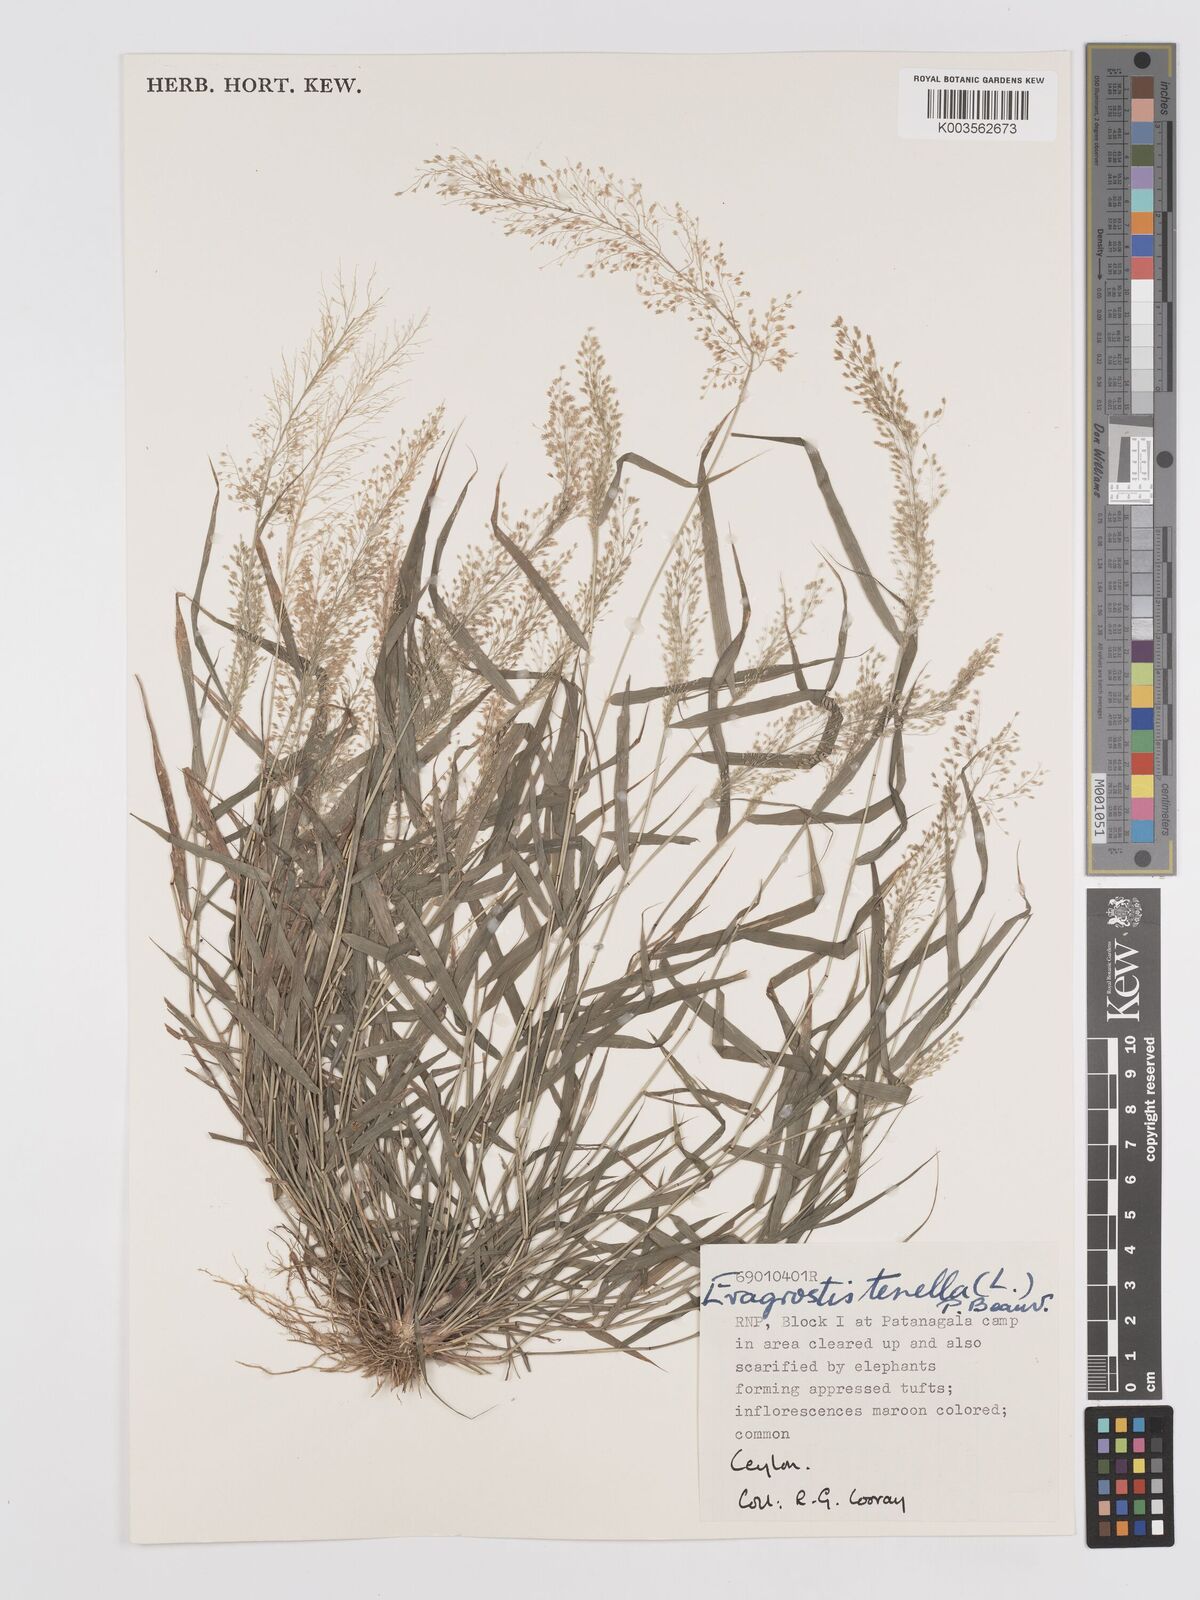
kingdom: Plantae
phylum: Tracheophyta
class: Liliopsida
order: Poales
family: Poaceae
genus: Eragrostis
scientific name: Eragrostis tenella
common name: Japanese lovegrass
